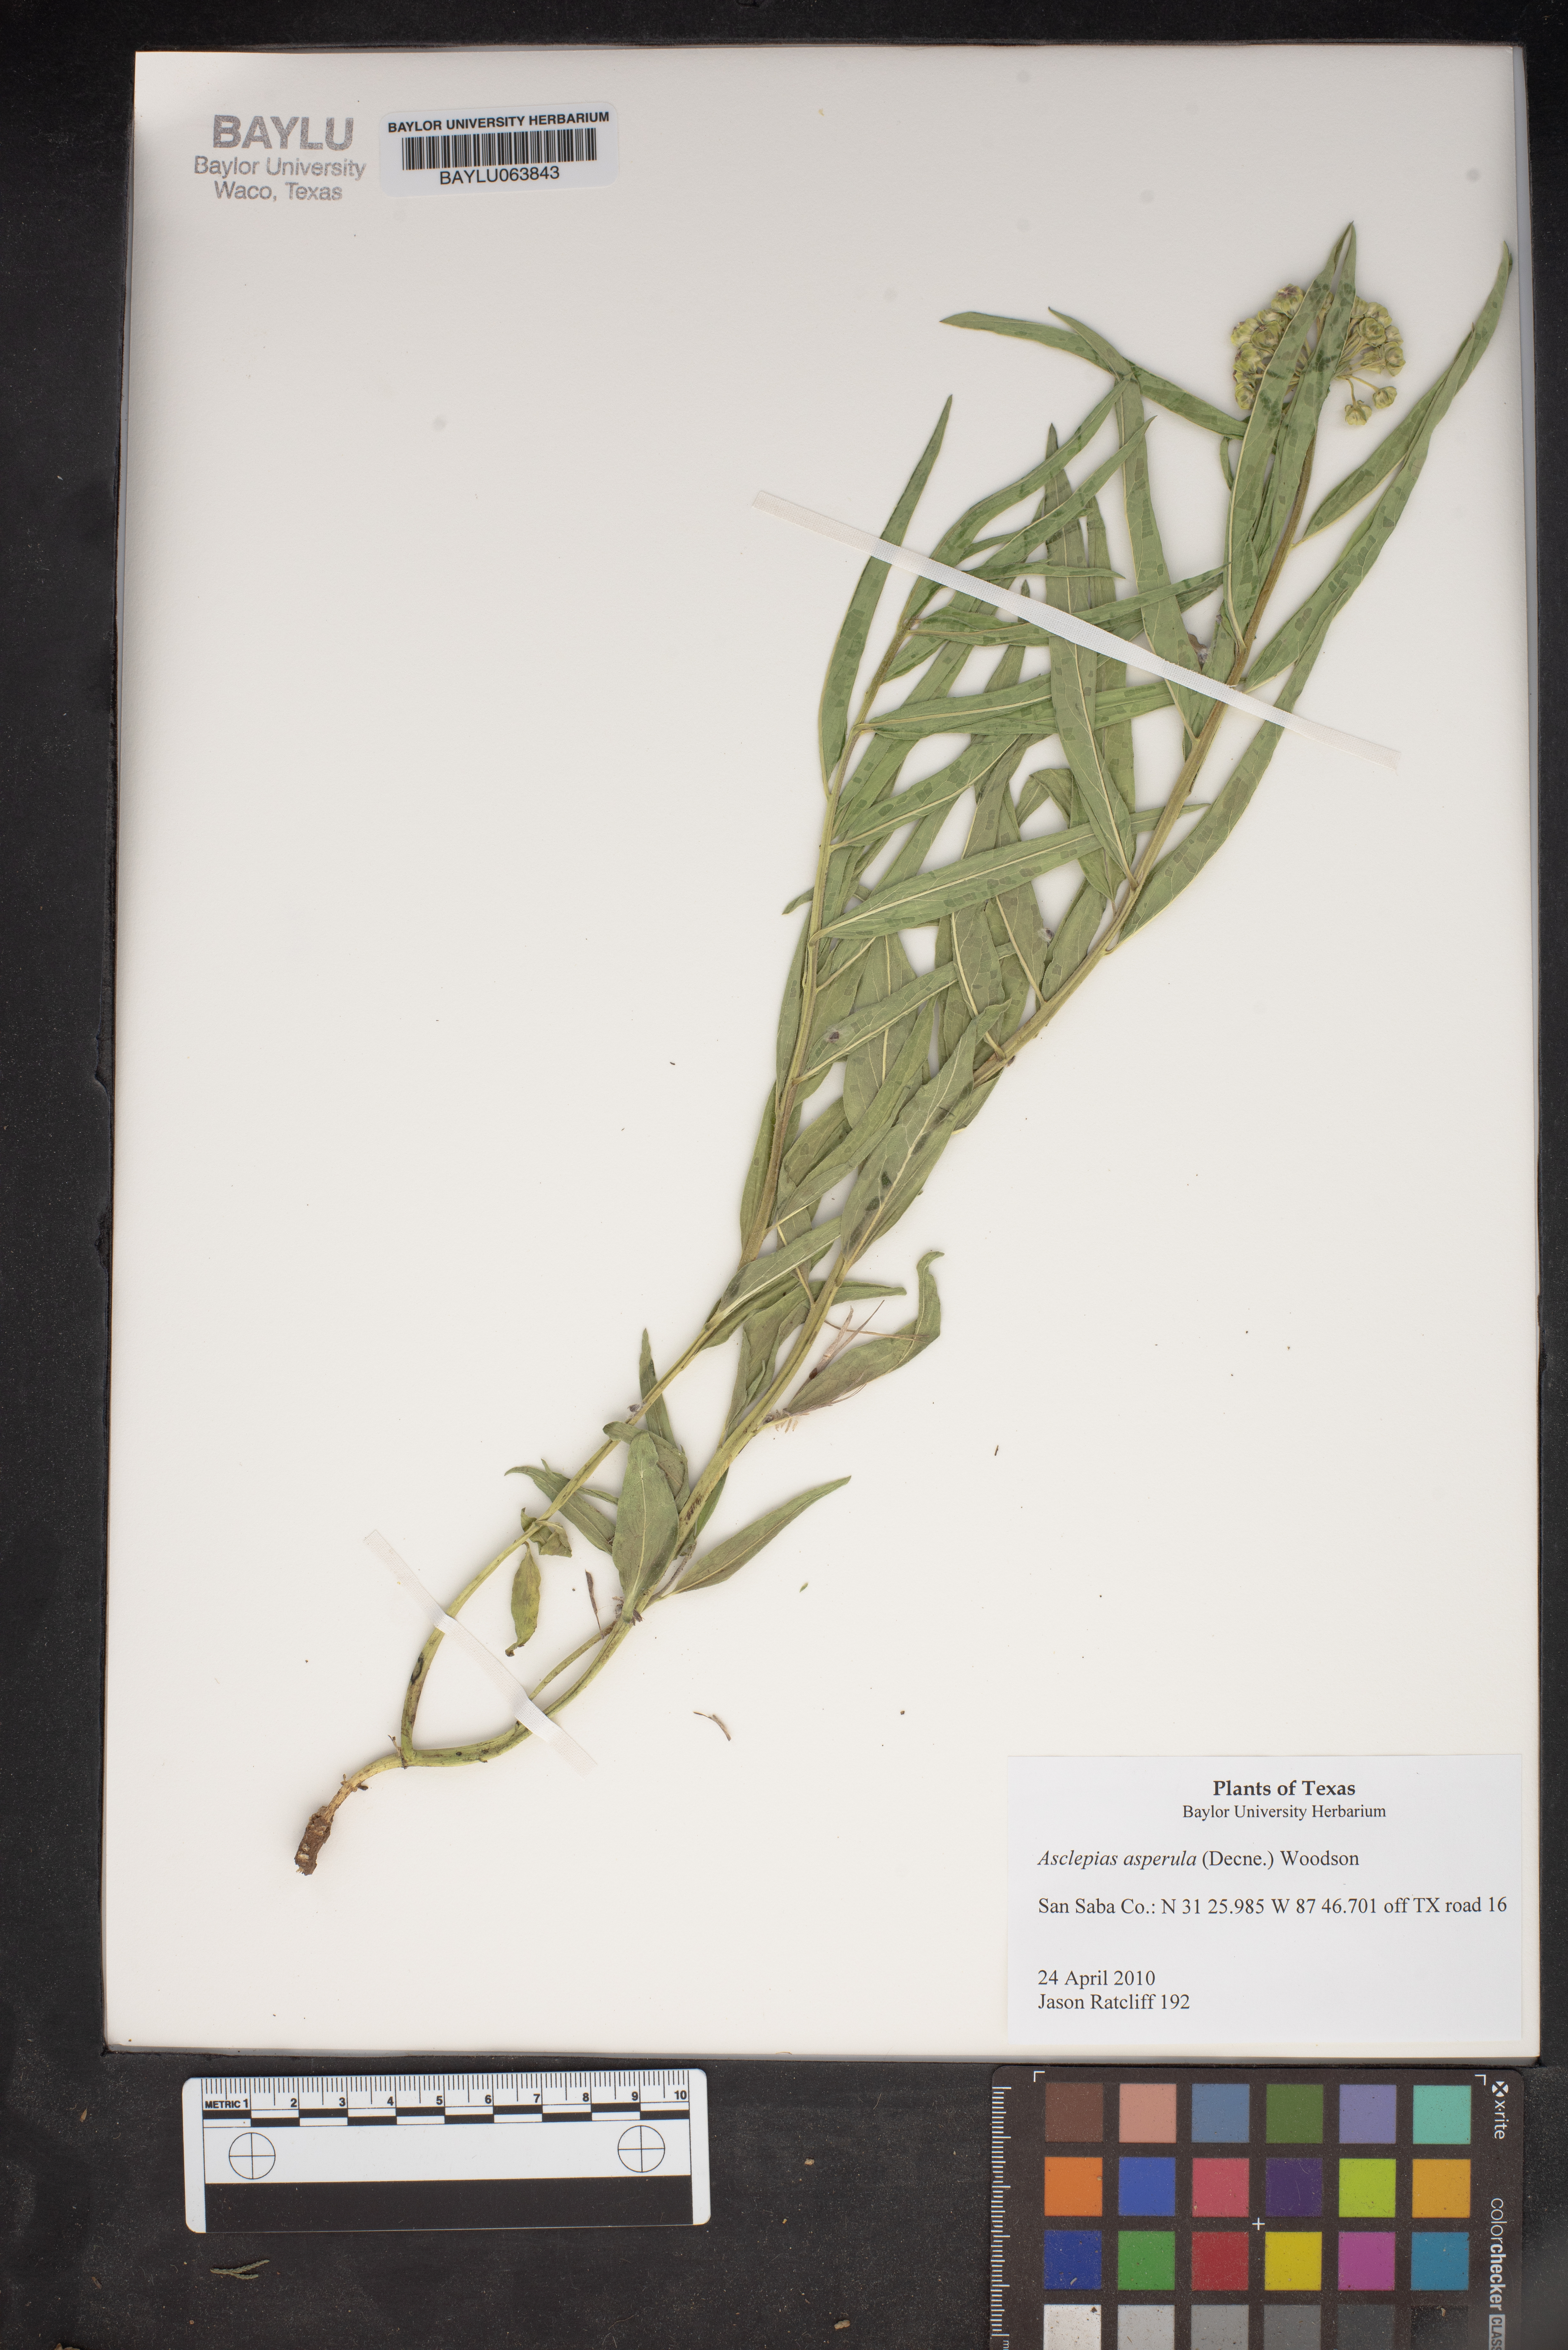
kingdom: Plantae
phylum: Tracheophyta
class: Magnoliopsida
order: Gentianales
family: Apocynaceae
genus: Asclepias
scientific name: Asclepias asperula
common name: Antelope horns
